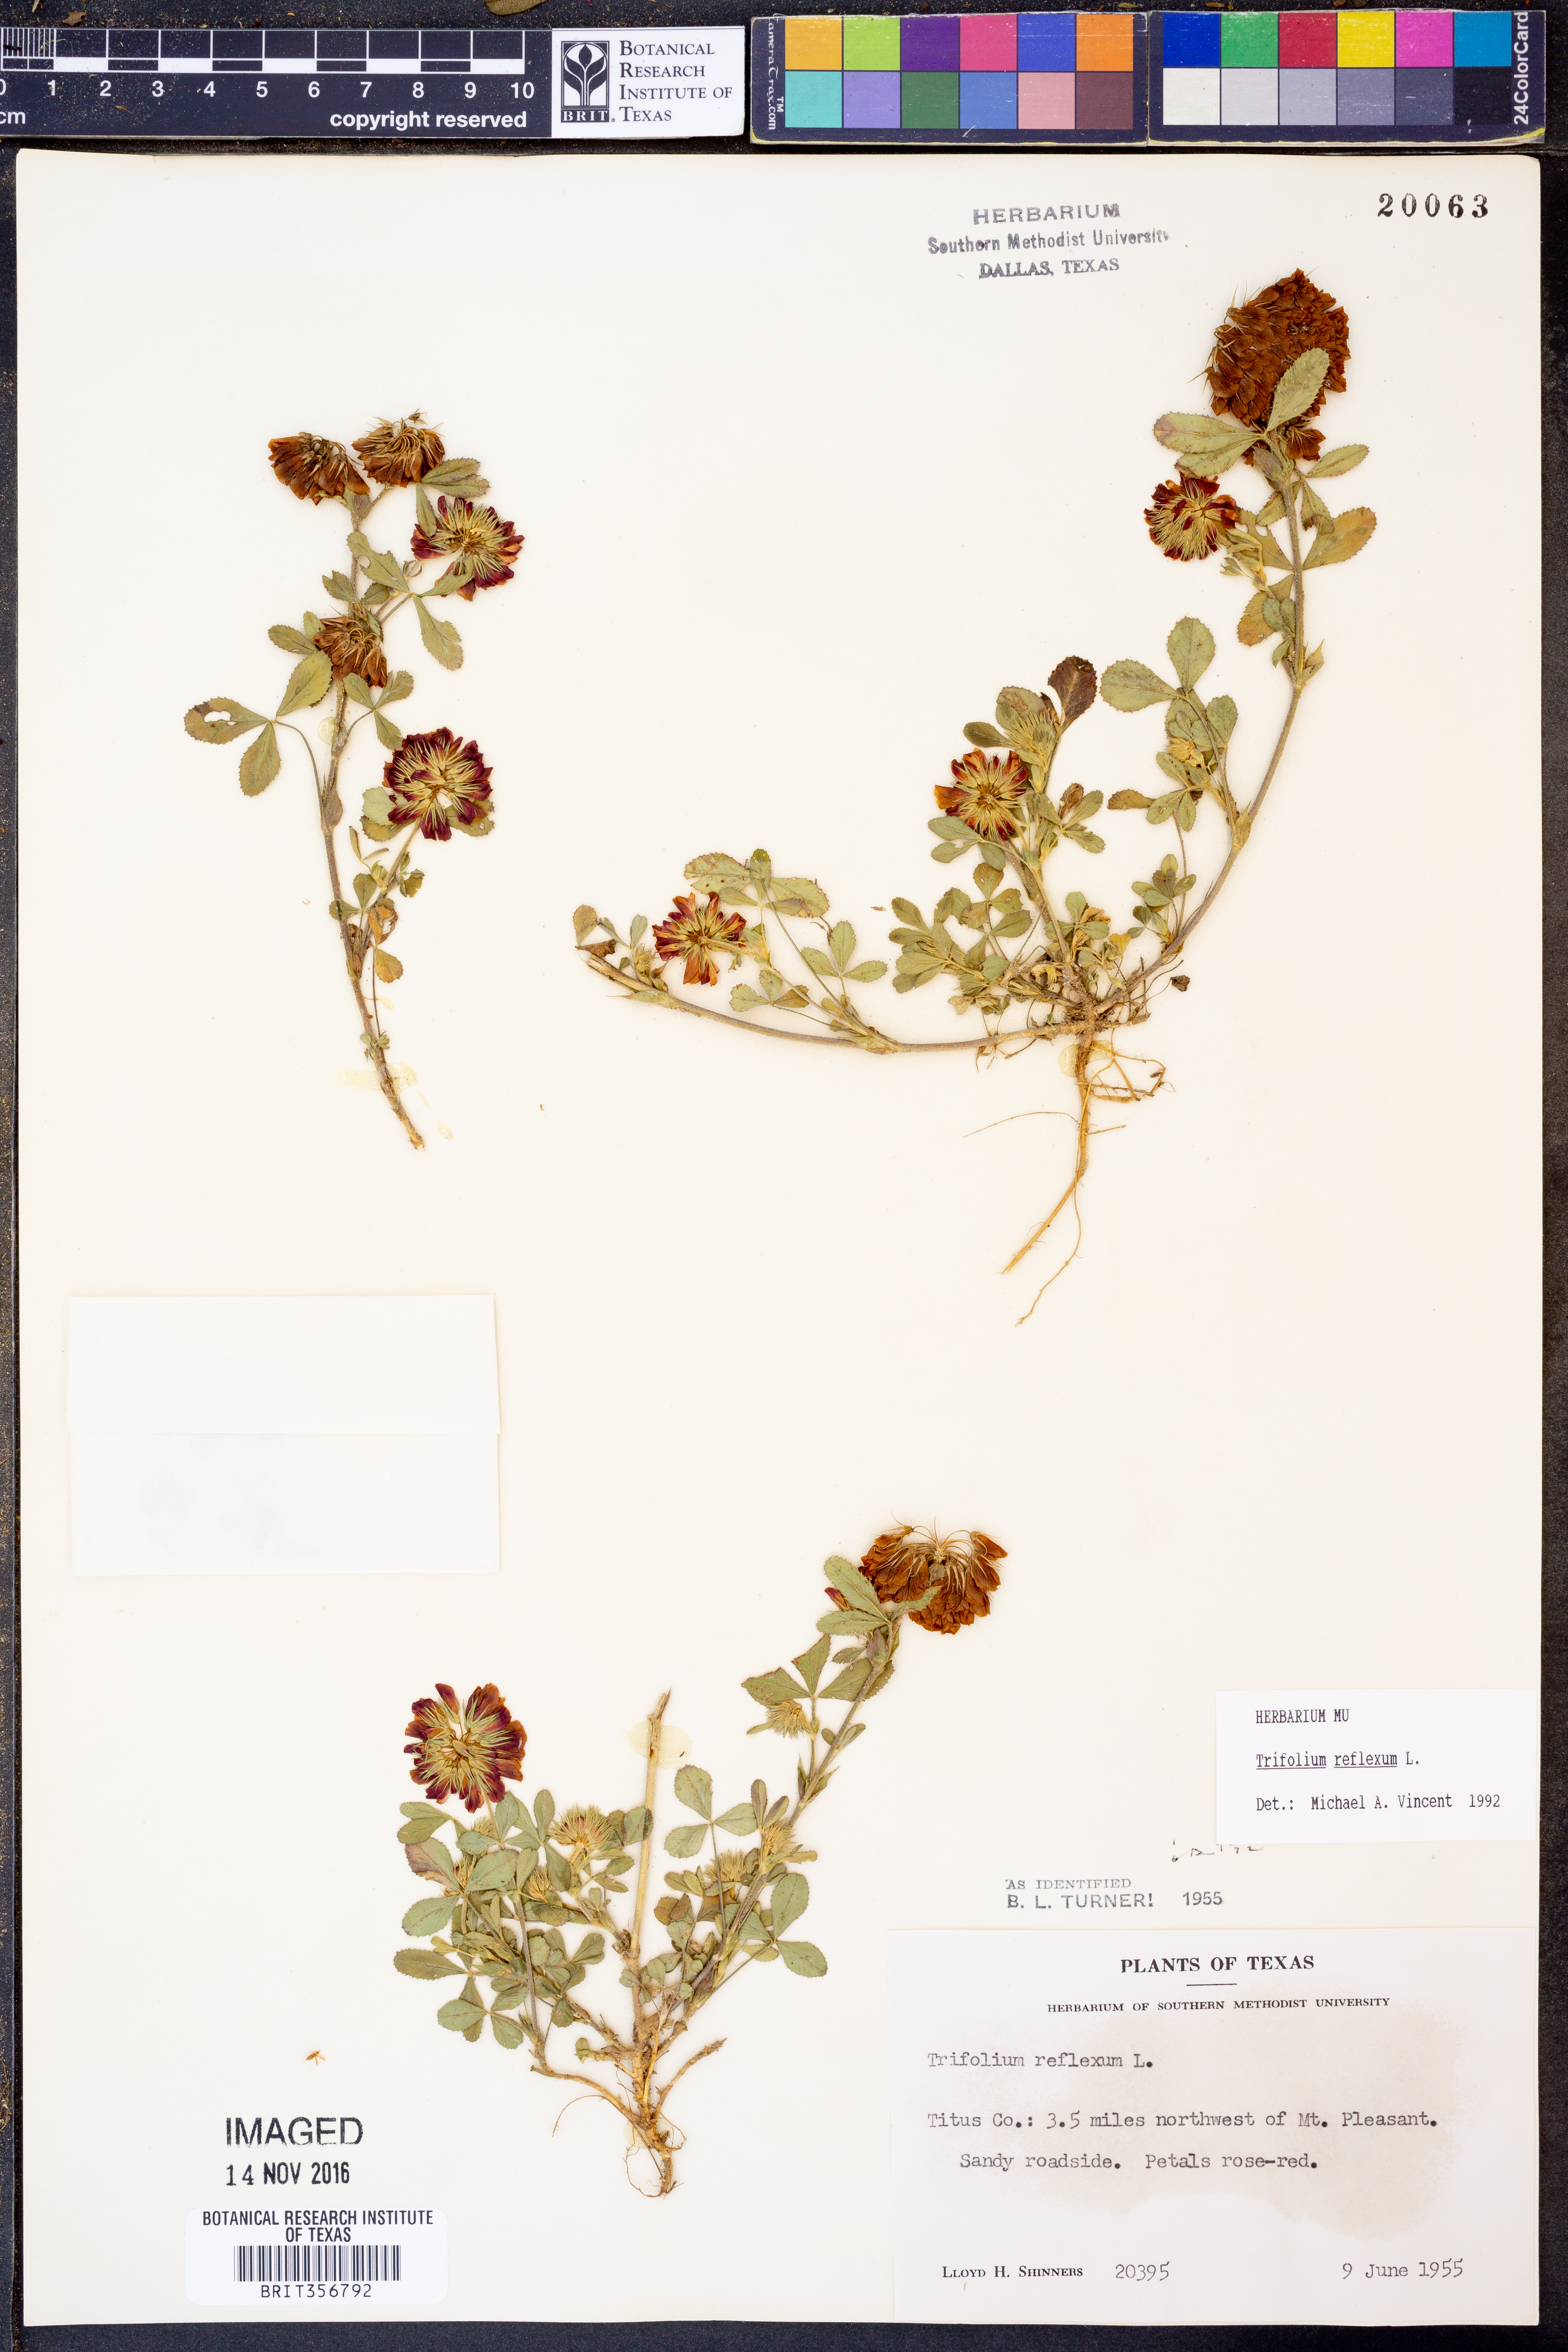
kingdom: Plantae
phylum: Tracheophyta
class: Magnoliopsida
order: Fabales
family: Fabaceae
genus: Trifolium
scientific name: Trifolium reflexum
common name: Buffalo clover
